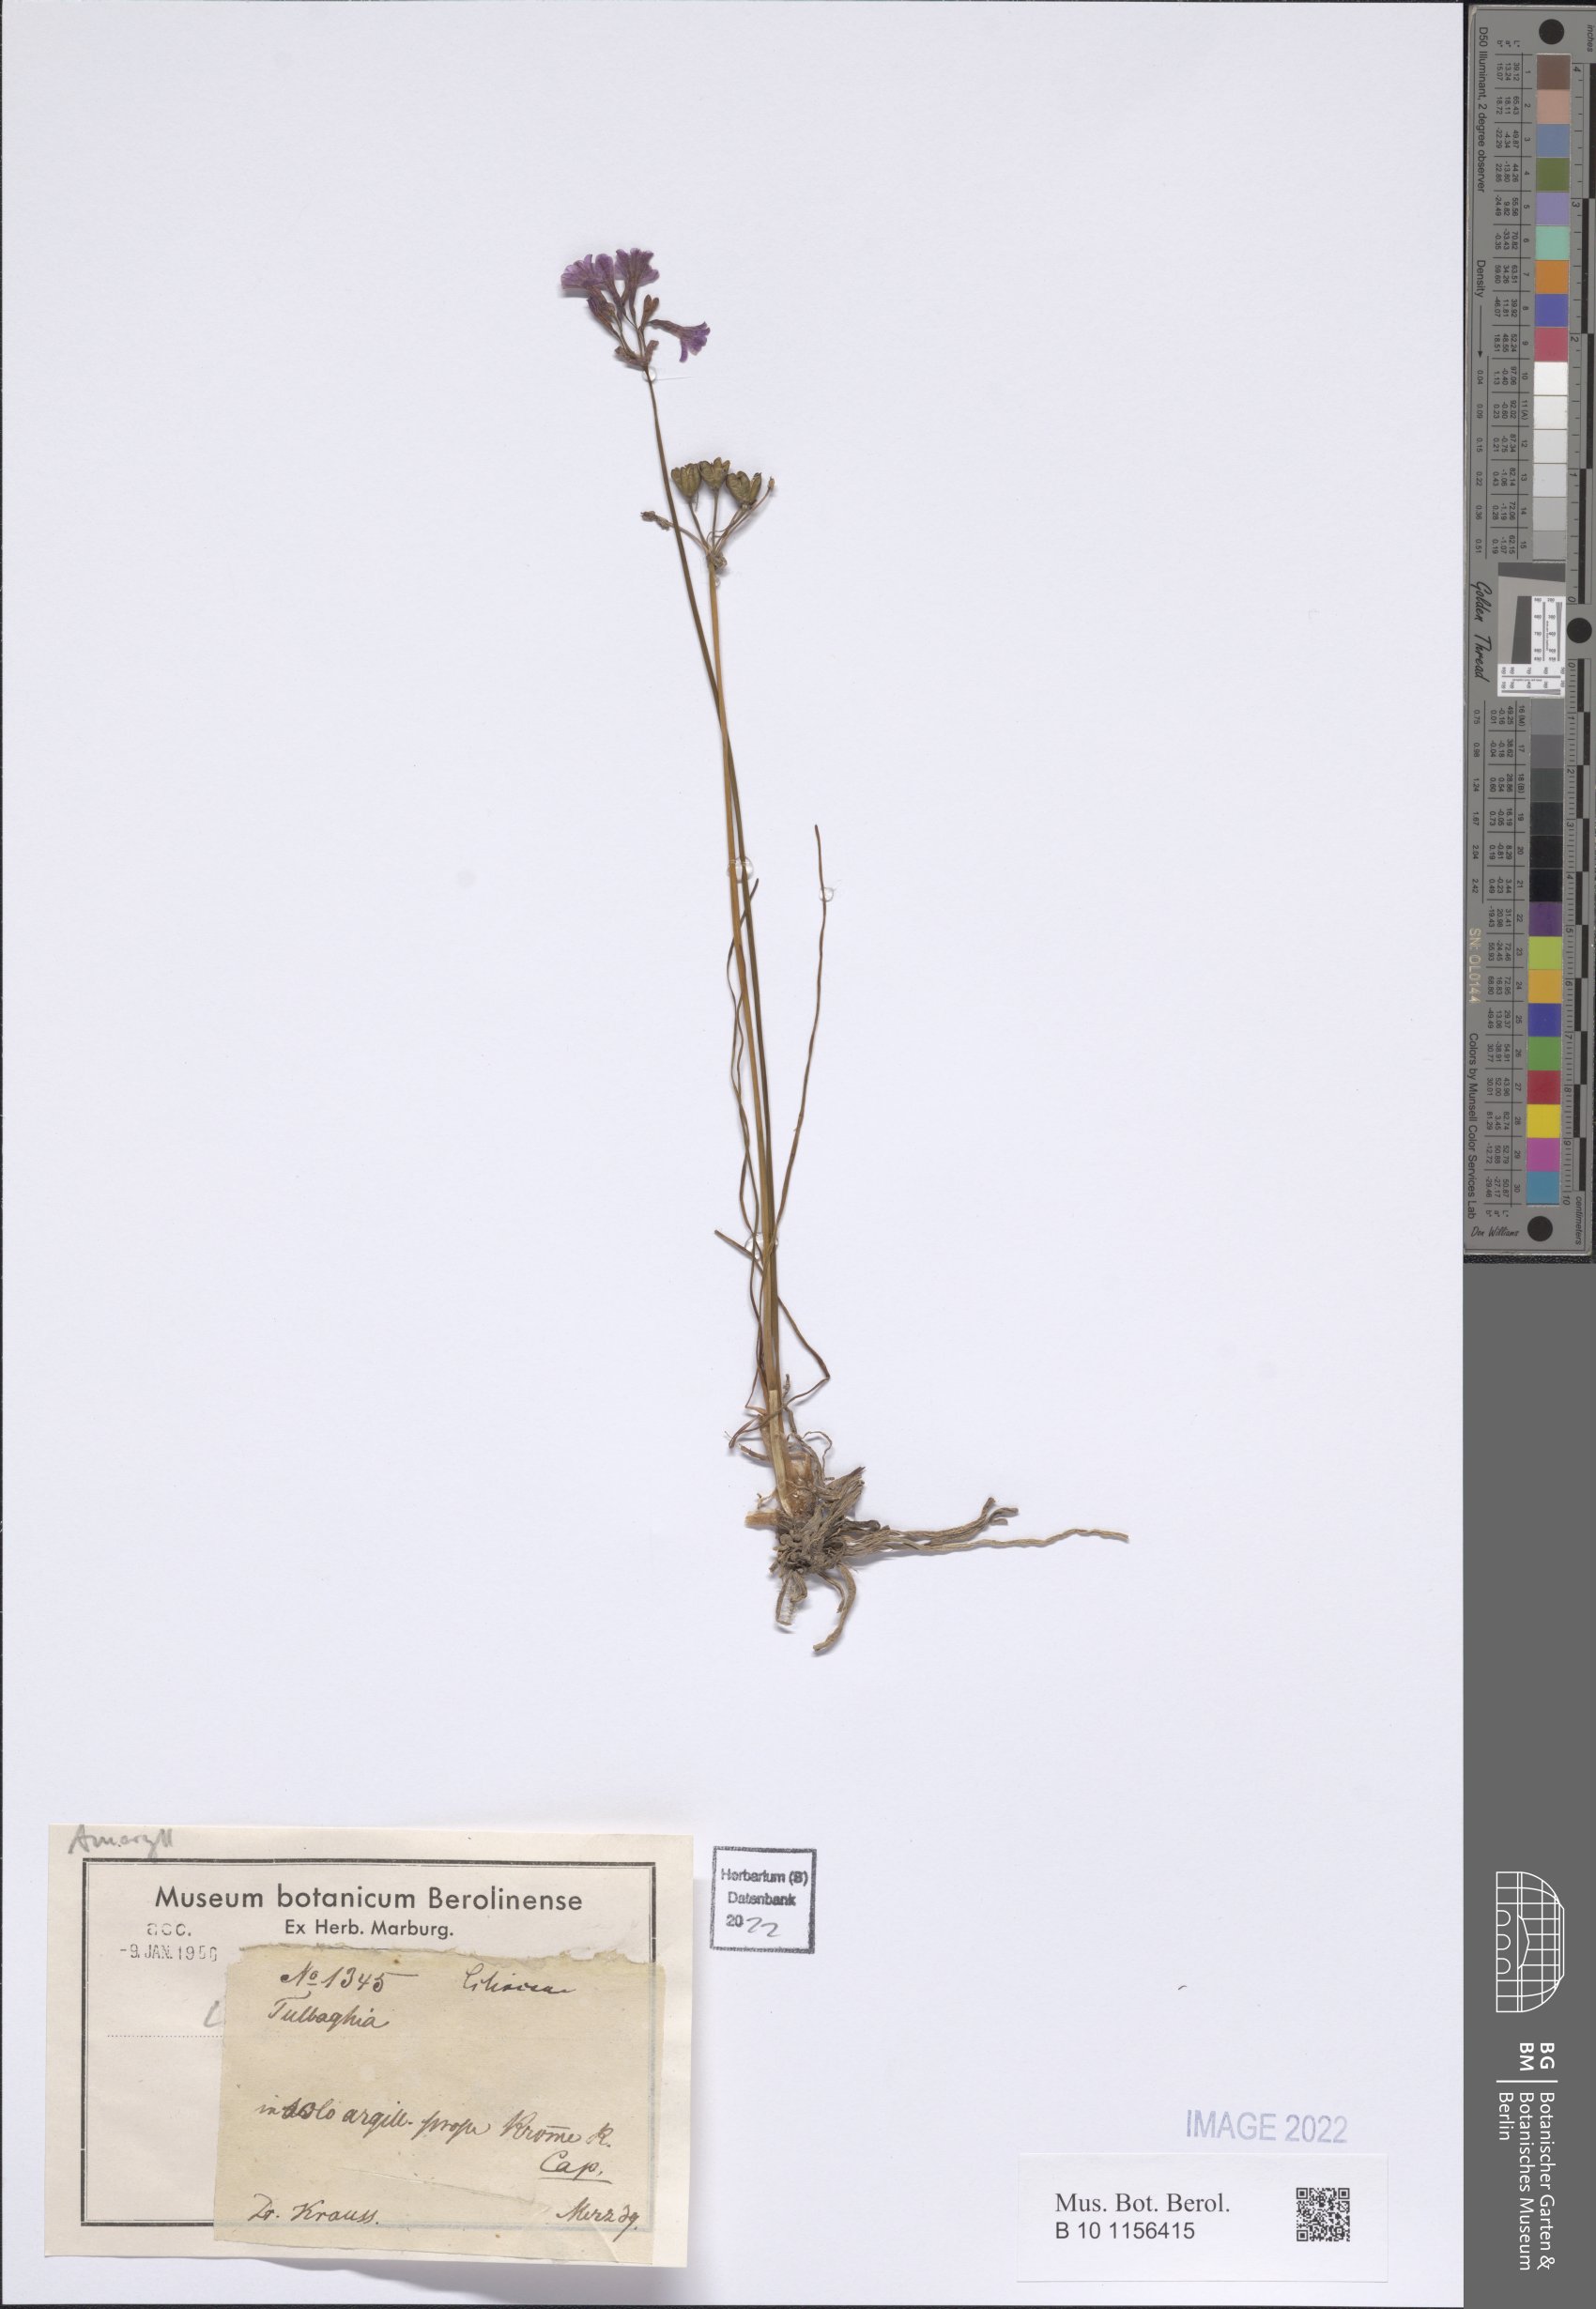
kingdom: Plantae
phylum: Tracheophyta
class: Liliopsida
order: Asparagales
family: Amaryllidaceae
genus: Tulbaghia
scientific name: Tulbaghia
